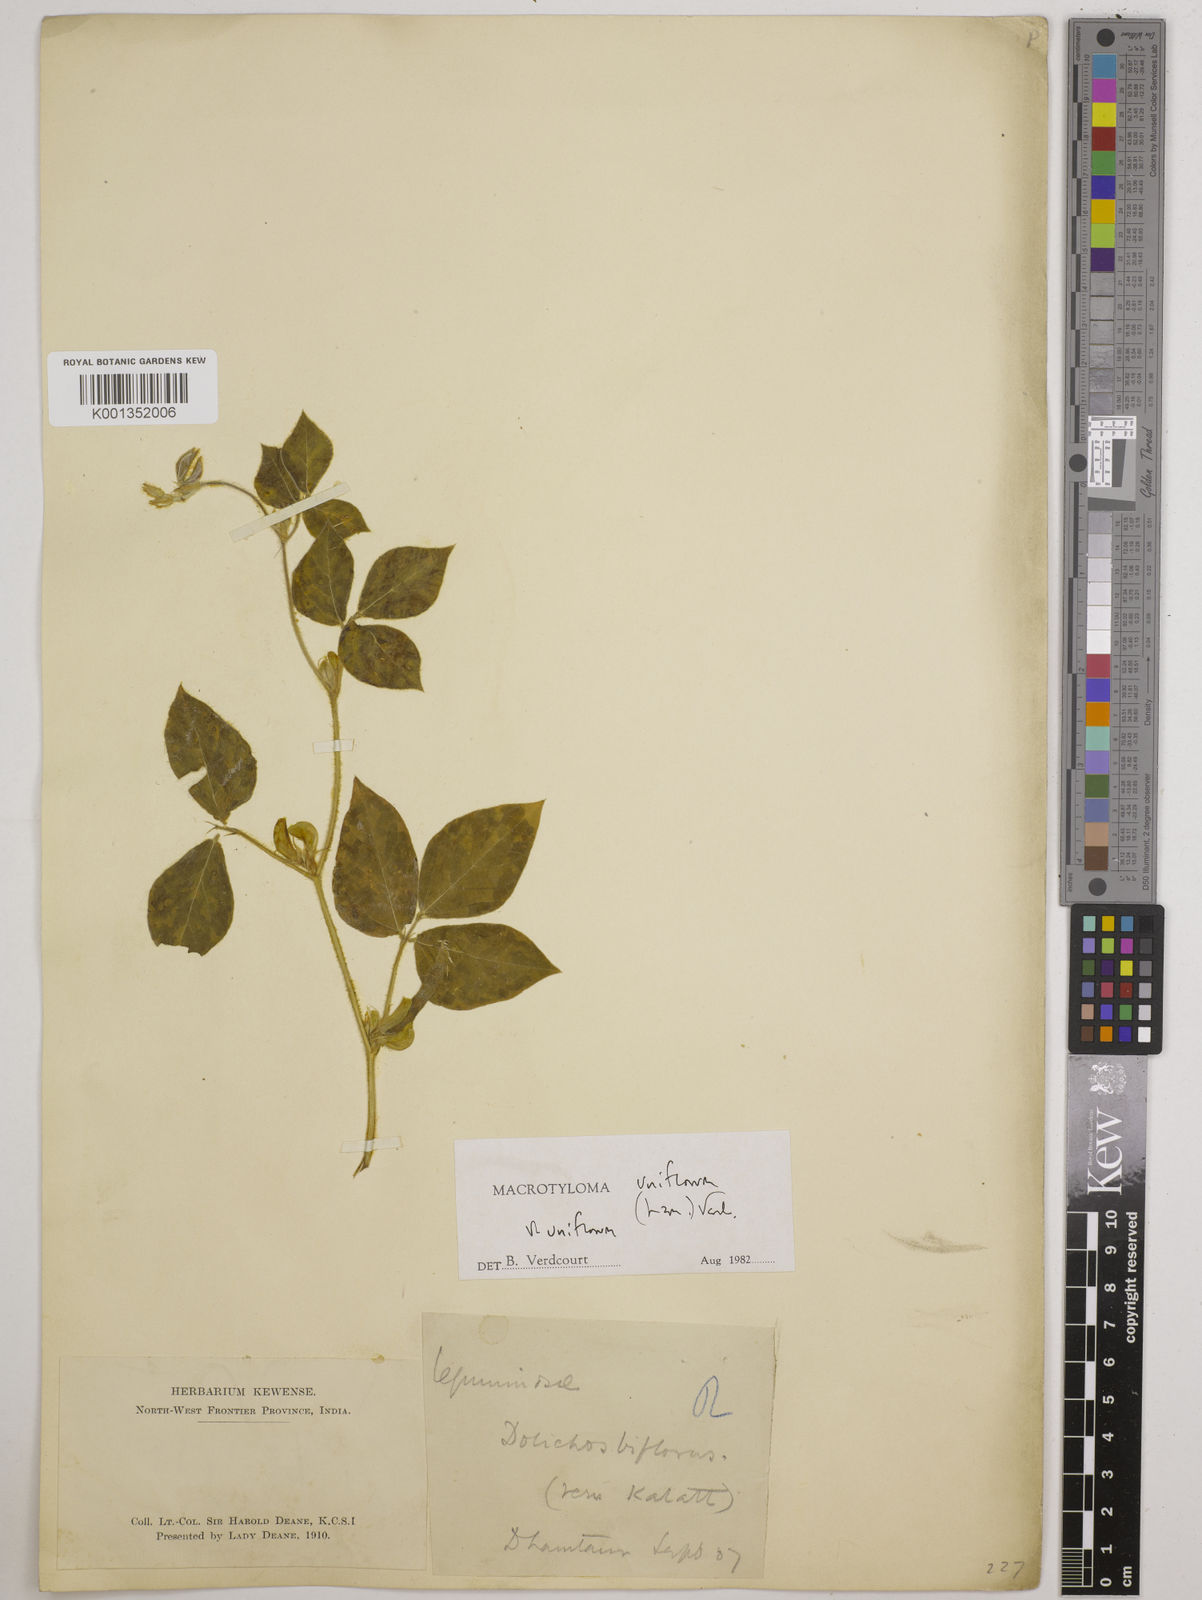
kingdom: Plantae
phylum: Tracheophyta
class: Magnoliopsida
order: Fabales
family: Fabaceae
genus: Macrotyloma
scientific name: Macrotyloma uniflorum
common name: Horse gram
